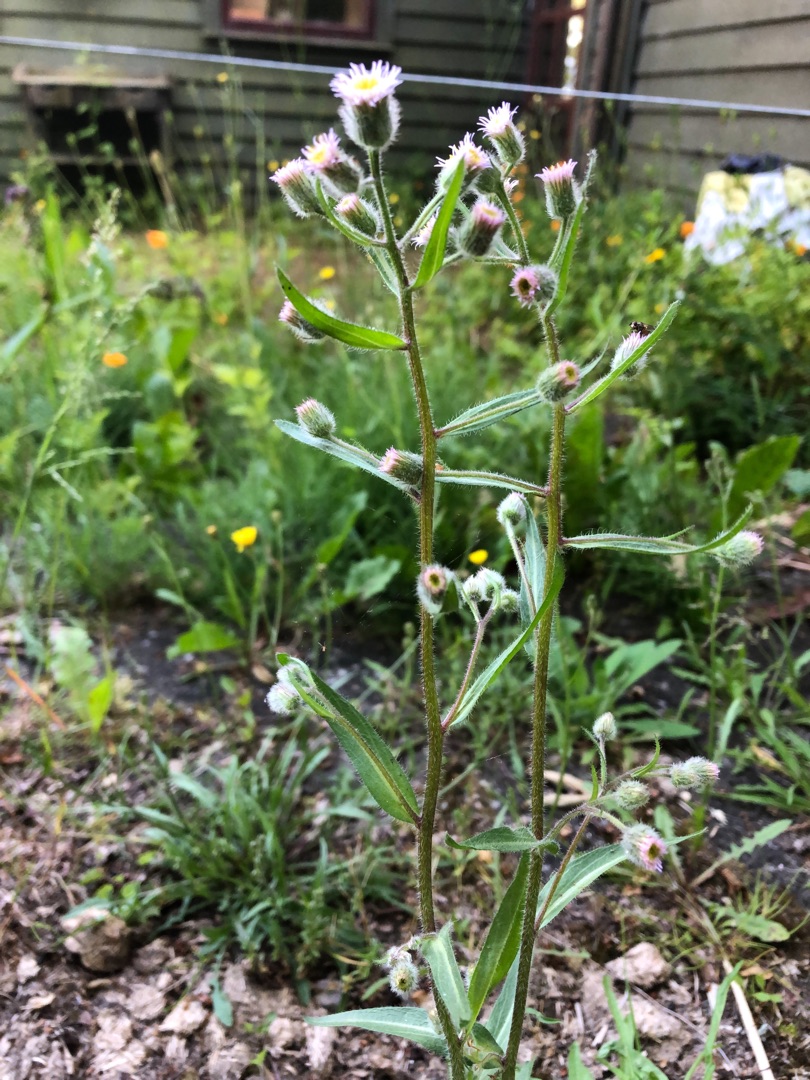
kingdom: Plantae
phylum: Tracheophyta
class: Magnoliopsida
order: Asterales
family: Asteraceae
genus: Erigeron
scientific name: Erigeron acris
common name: Bitter bakkestjerne
